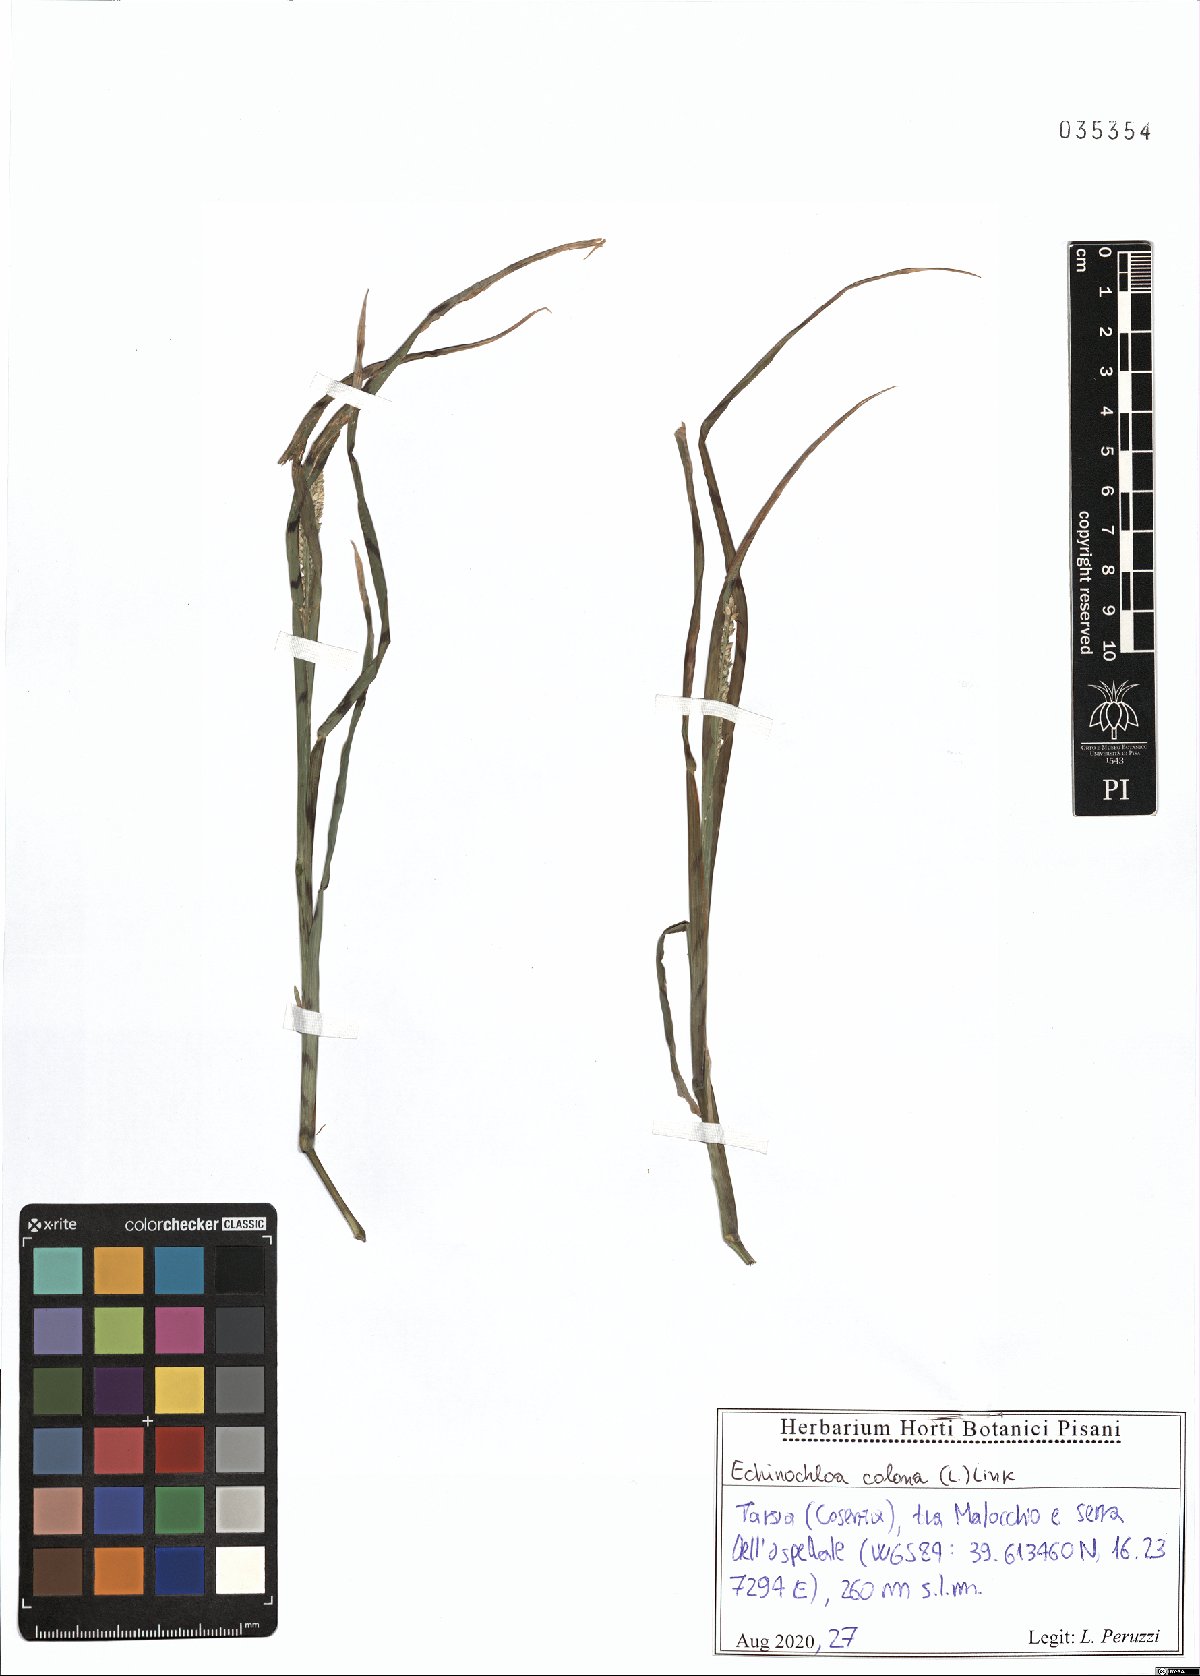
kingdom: Plantae
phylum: Tracheophyta
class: Liliopsida
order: Poales
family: Poaceae
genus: Echinochloa
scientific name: Echinochloa colonum
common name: Jungle rice
